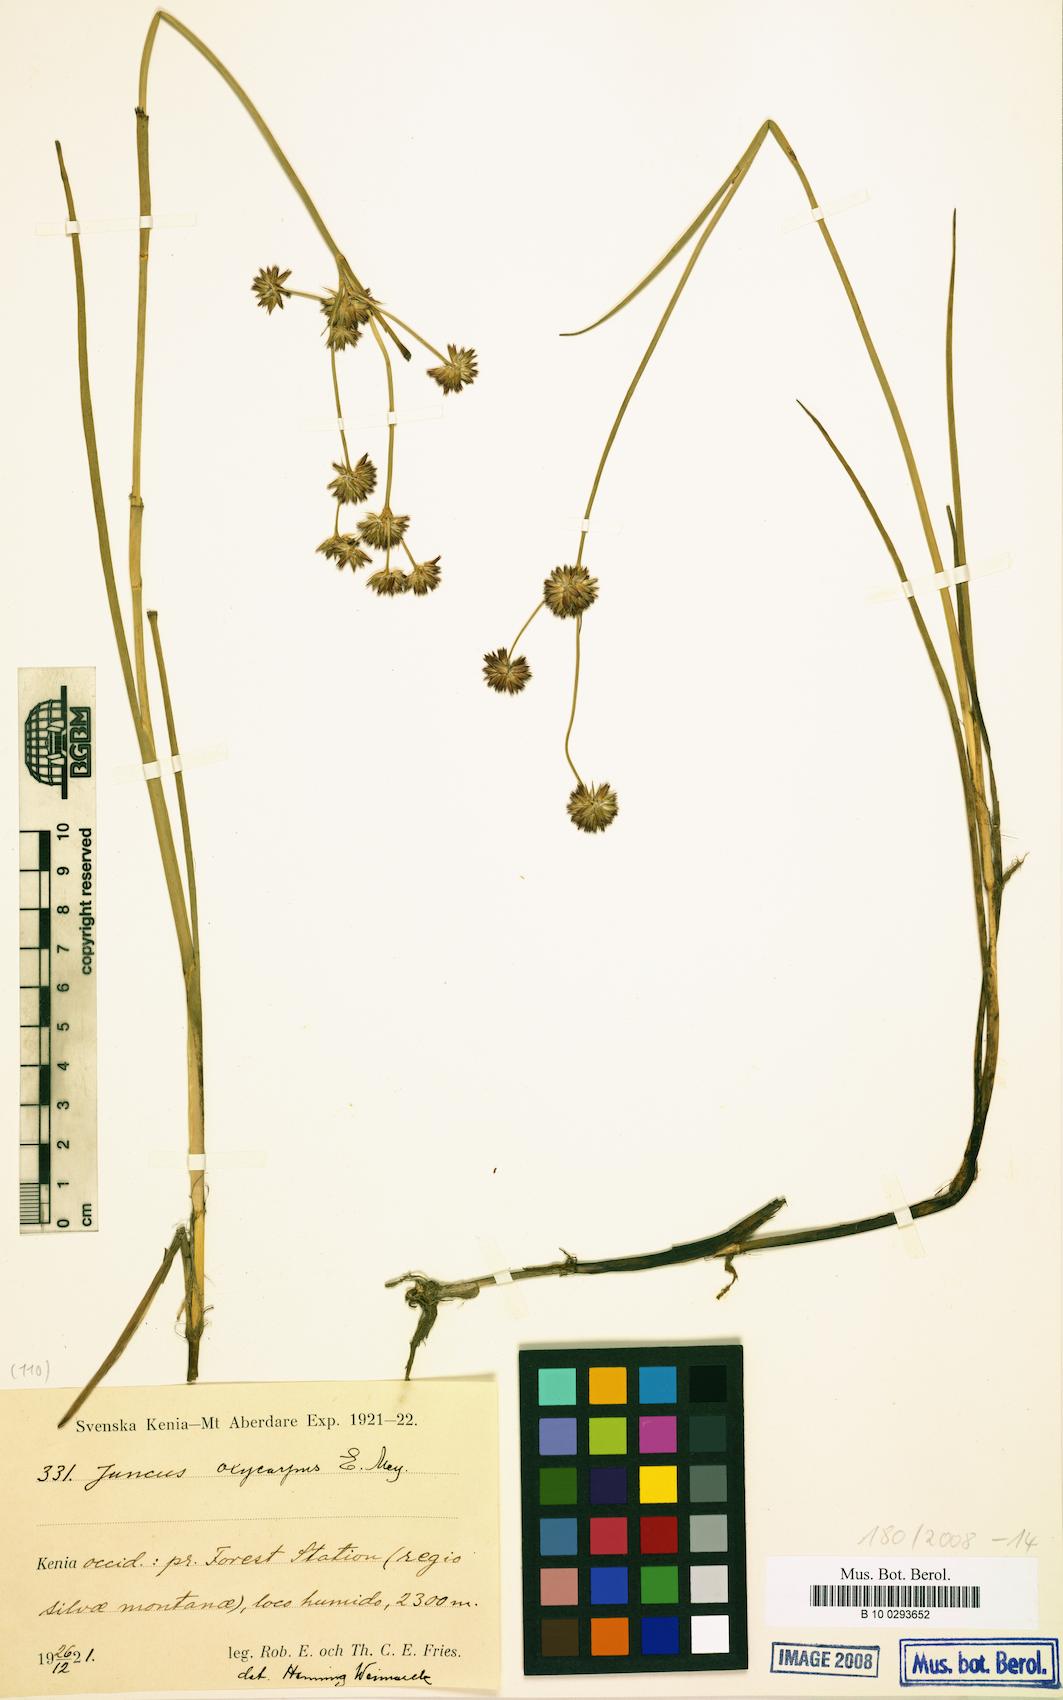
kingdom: Plantae
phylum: Tracheophyta
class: Liliopsida
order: Poales
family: Juncaceae
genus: Juncus
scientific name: Juncus oxycarpus
